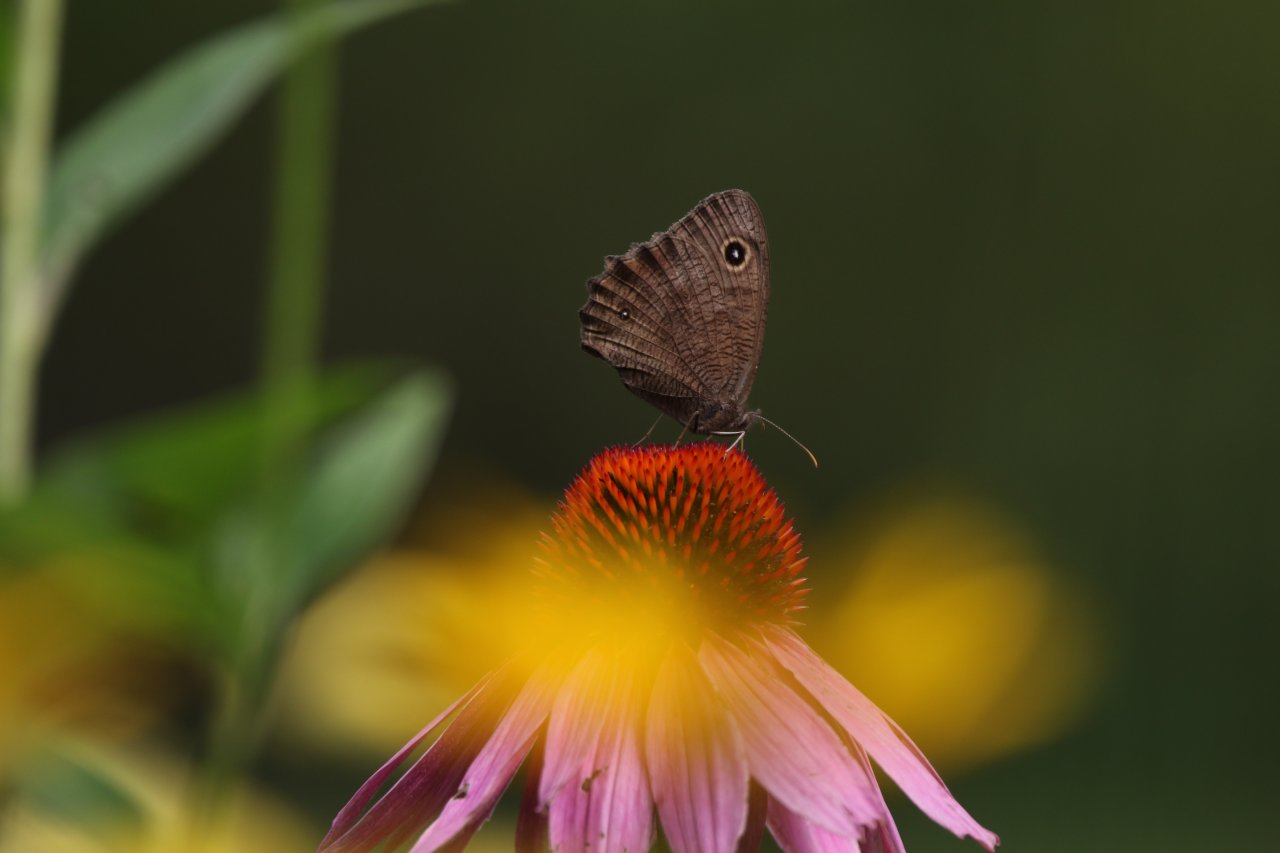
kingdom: Animalia
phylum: Arthropoda
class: Insecta
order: Lepidoptera
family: Nymphalidae
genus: Cercyonis
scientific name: Cercyonis pegala
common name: Common Wood-Nymph
